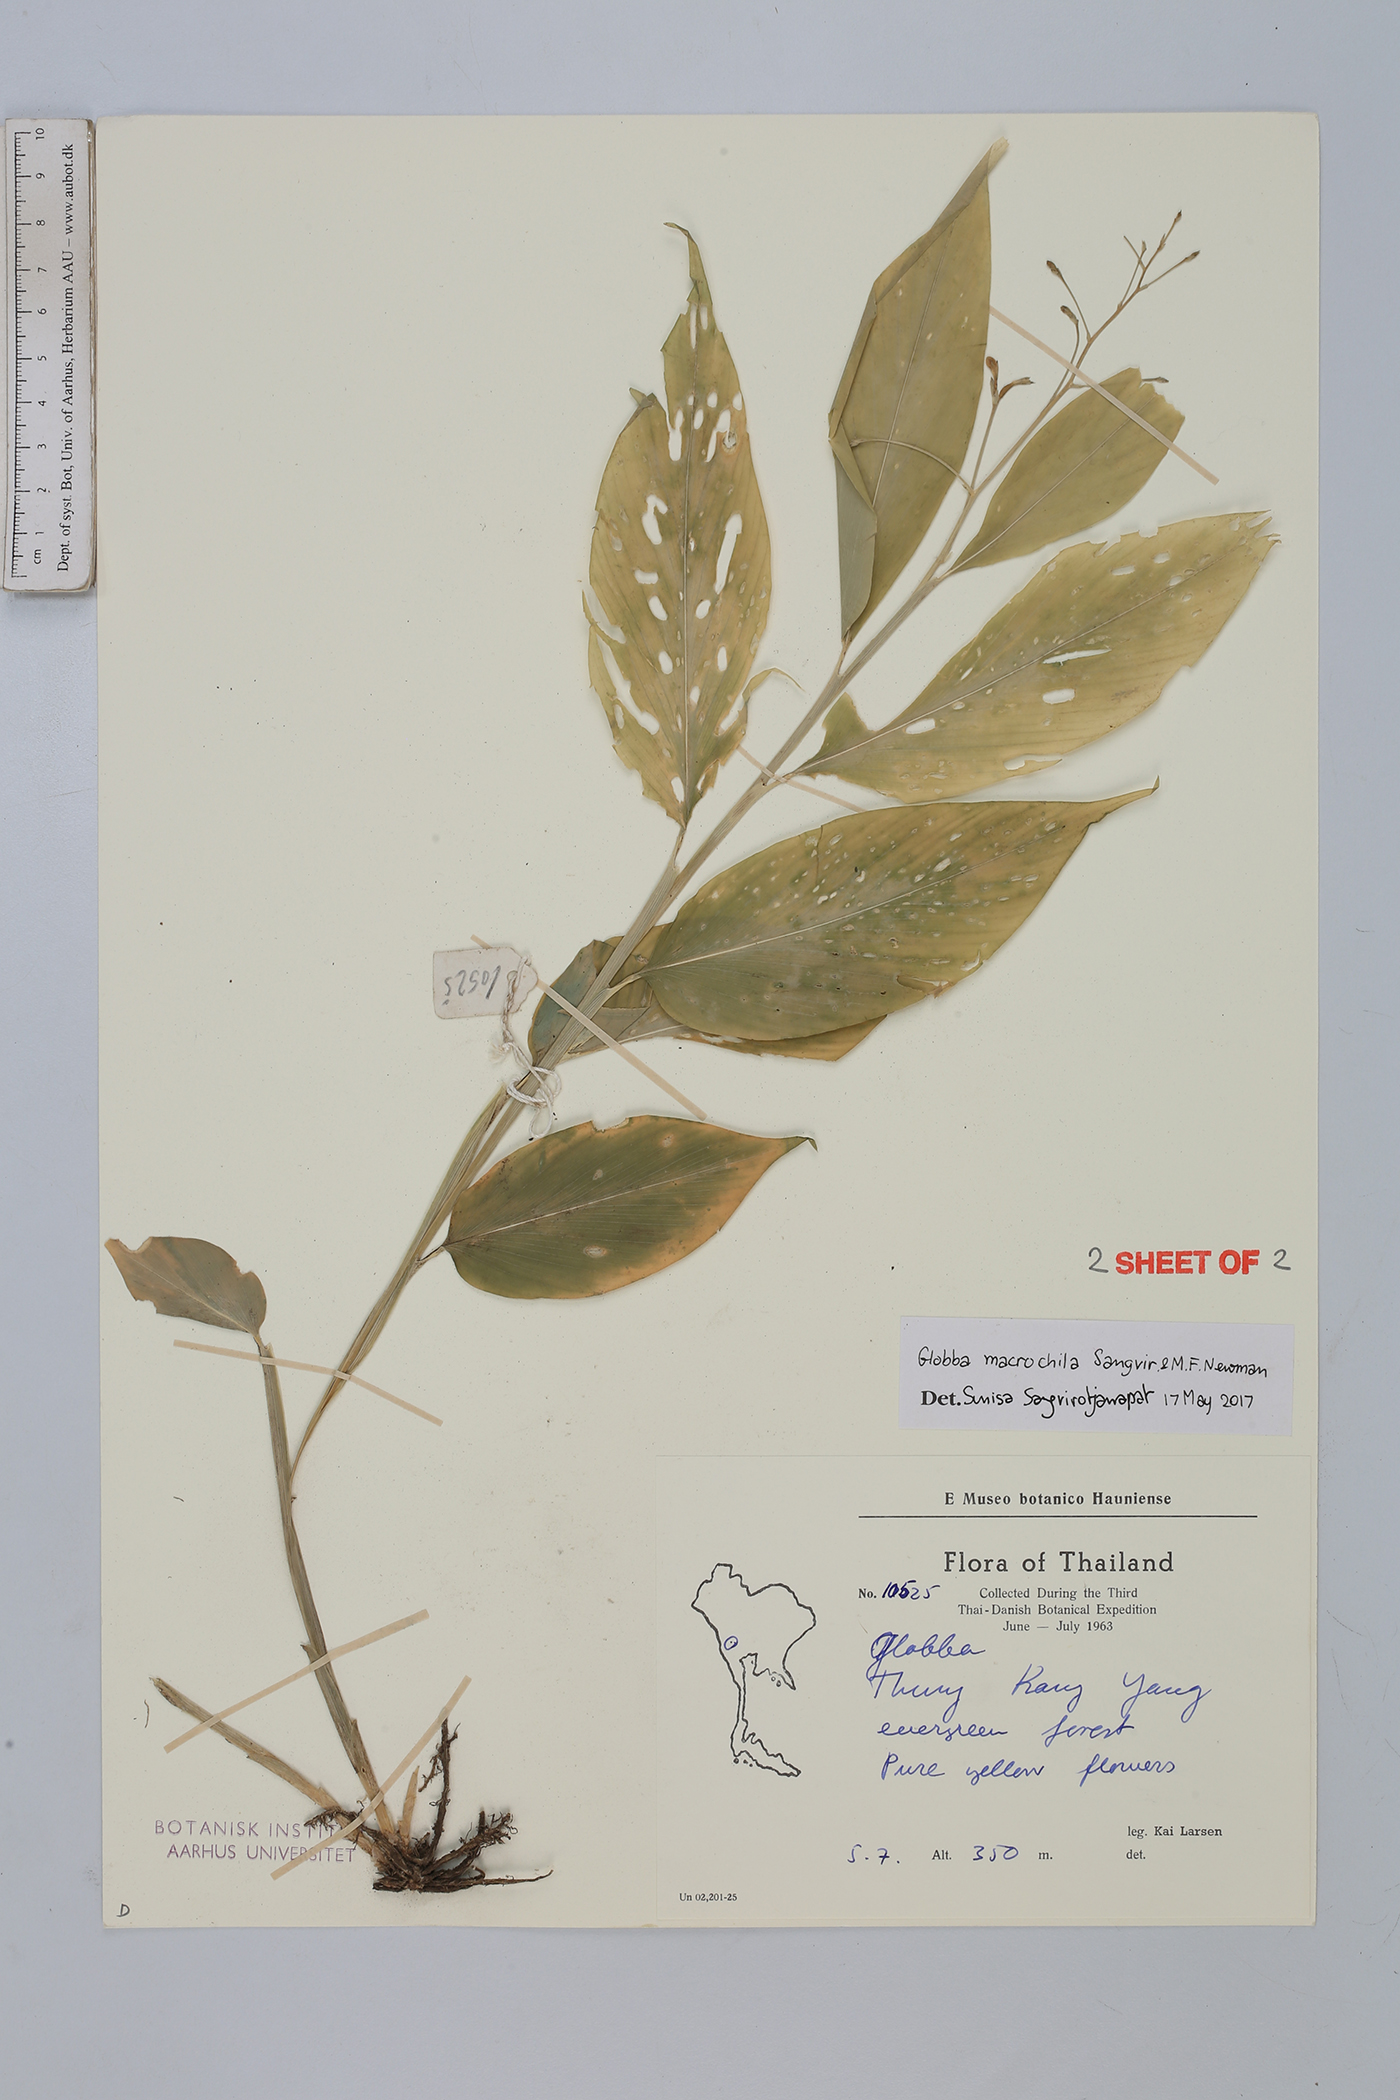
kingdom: Plantae
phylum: Tracheophyta
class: Liliopsida
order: Zingiberales
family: Zingiberaceae
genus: Globba
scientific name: Globba macrochila
